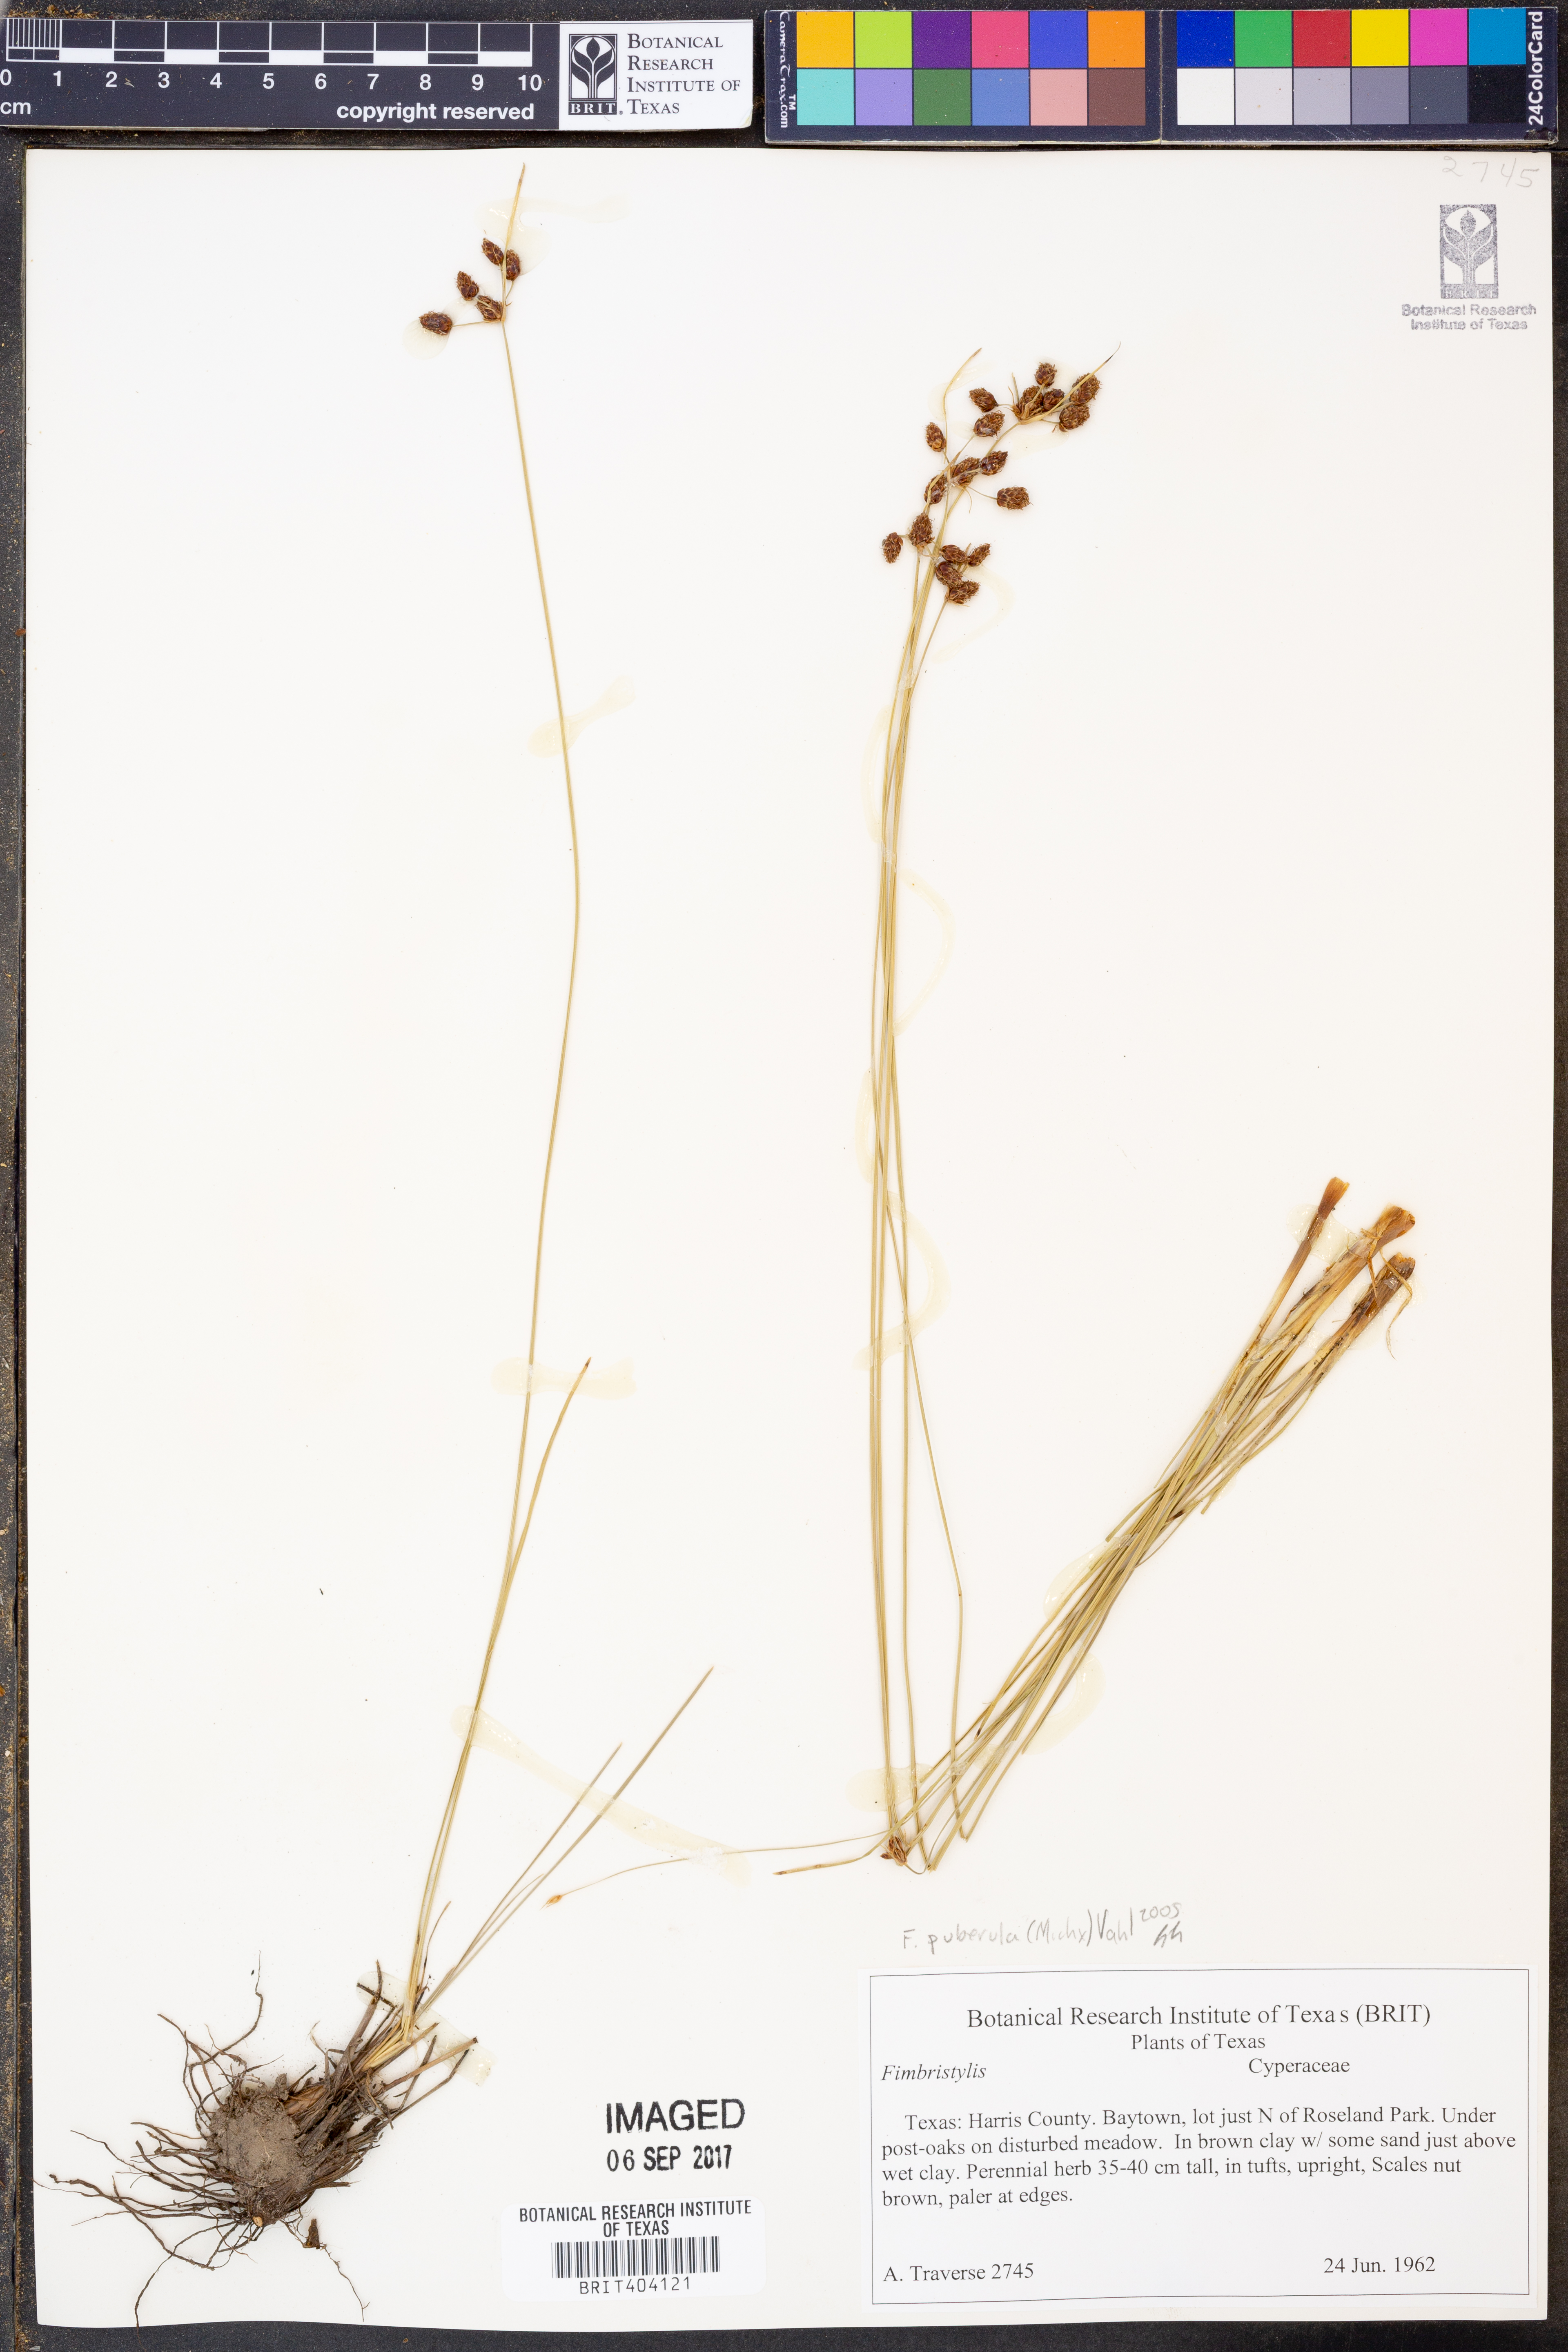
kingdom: Plantae
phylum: Tracheophyta
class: Liliopsida
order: Poales
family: Cyperaceae
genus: Fimbristylis
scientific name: Fimbristylis puberula
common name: Hairy fimbristylis
